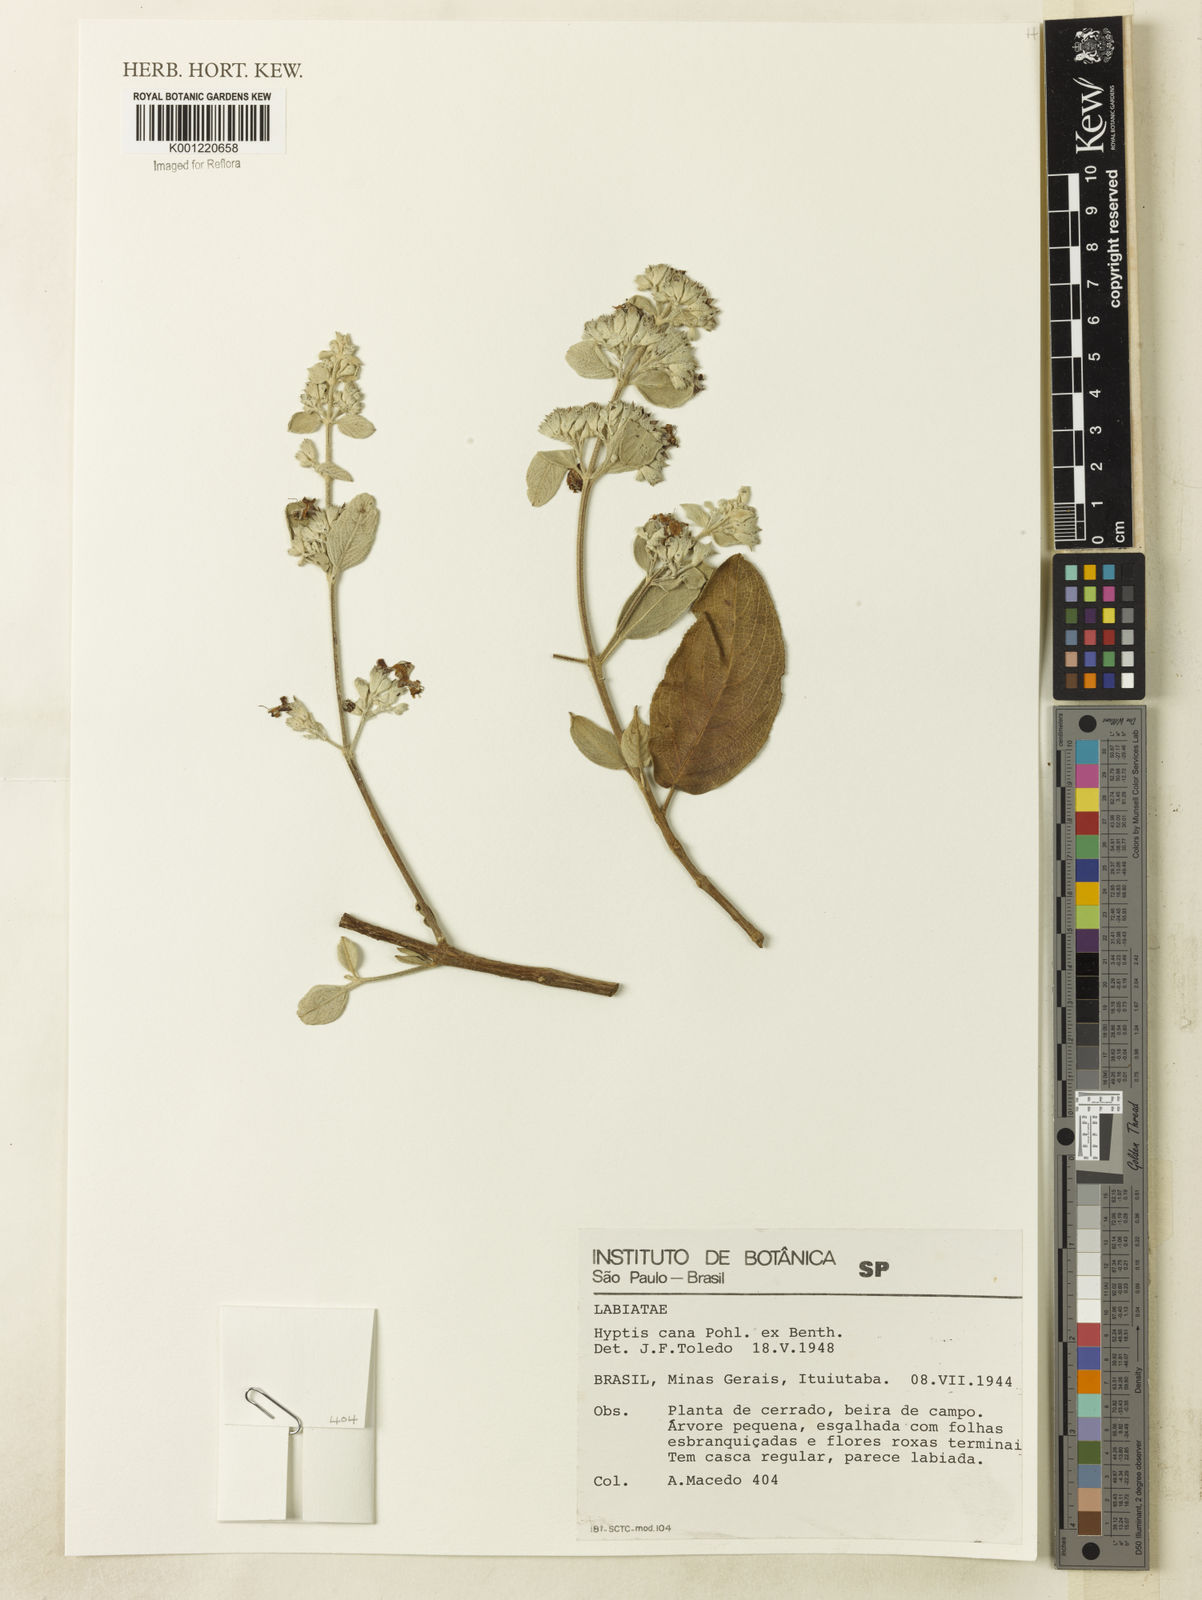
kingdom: Plantae
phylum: Tracheophyta
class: Magnoliopsida
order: Lamiales
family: Lamiaceae
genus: Hyptidendron
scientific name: Hyptidendron canum
